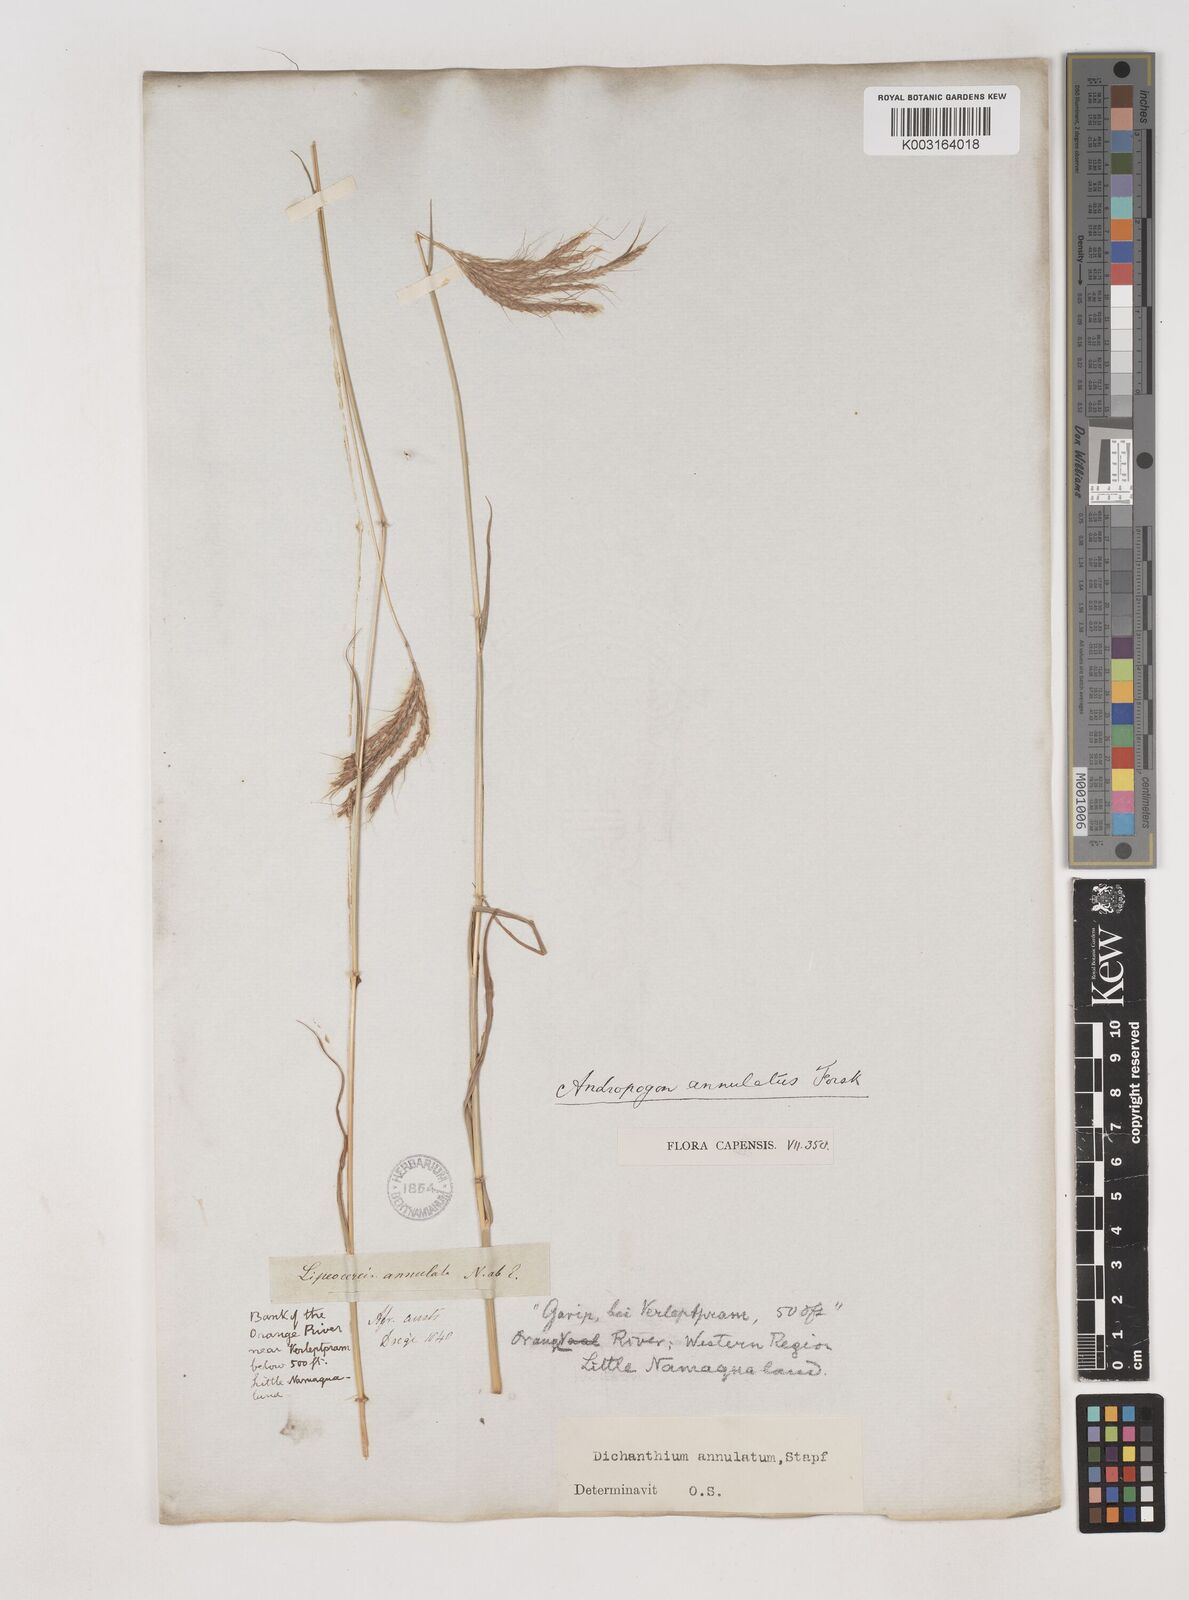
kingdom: Plantae
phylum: Tracheophyta
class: Liliopsida
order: Poales
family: Poaceae
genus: Dichanthium
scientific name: Dichanthium annulatum
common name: Kleberg's bluestem
